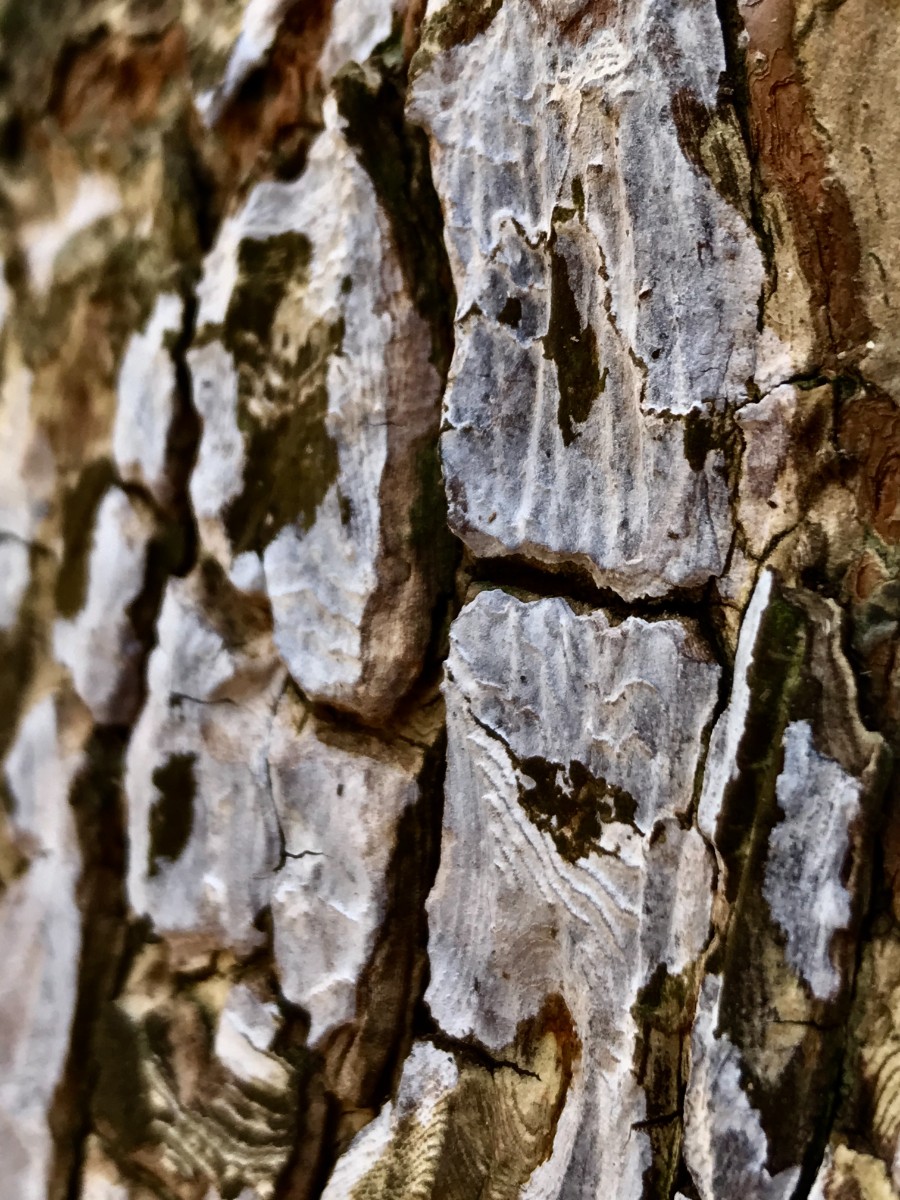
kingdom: Fungi
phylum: Basidiomycota
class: Agaricomycetes
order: Agaricales
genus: Dendrothele
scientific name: Dendrothele acerina
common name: navr-kalkplet
